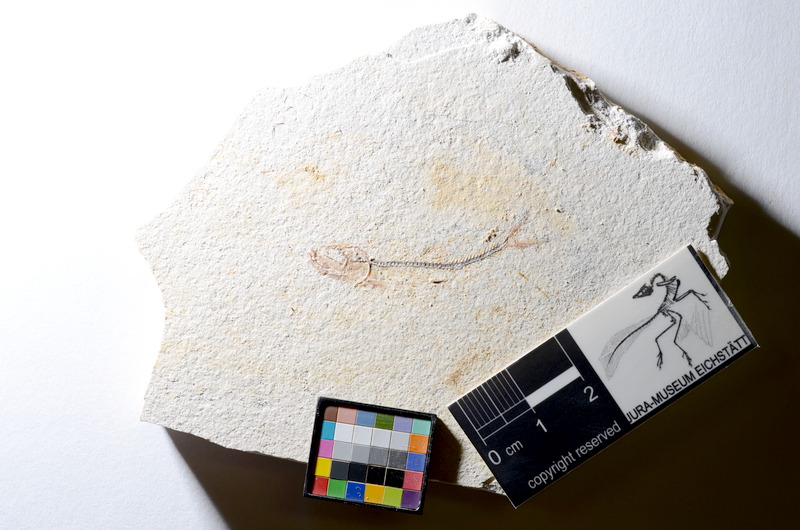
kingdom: Animalia
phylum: Chordata
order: Salmoniformes
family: Orthogonikleithridae
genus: Orthogonikleithrus
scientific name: Orthogonikleithrus hoelli
